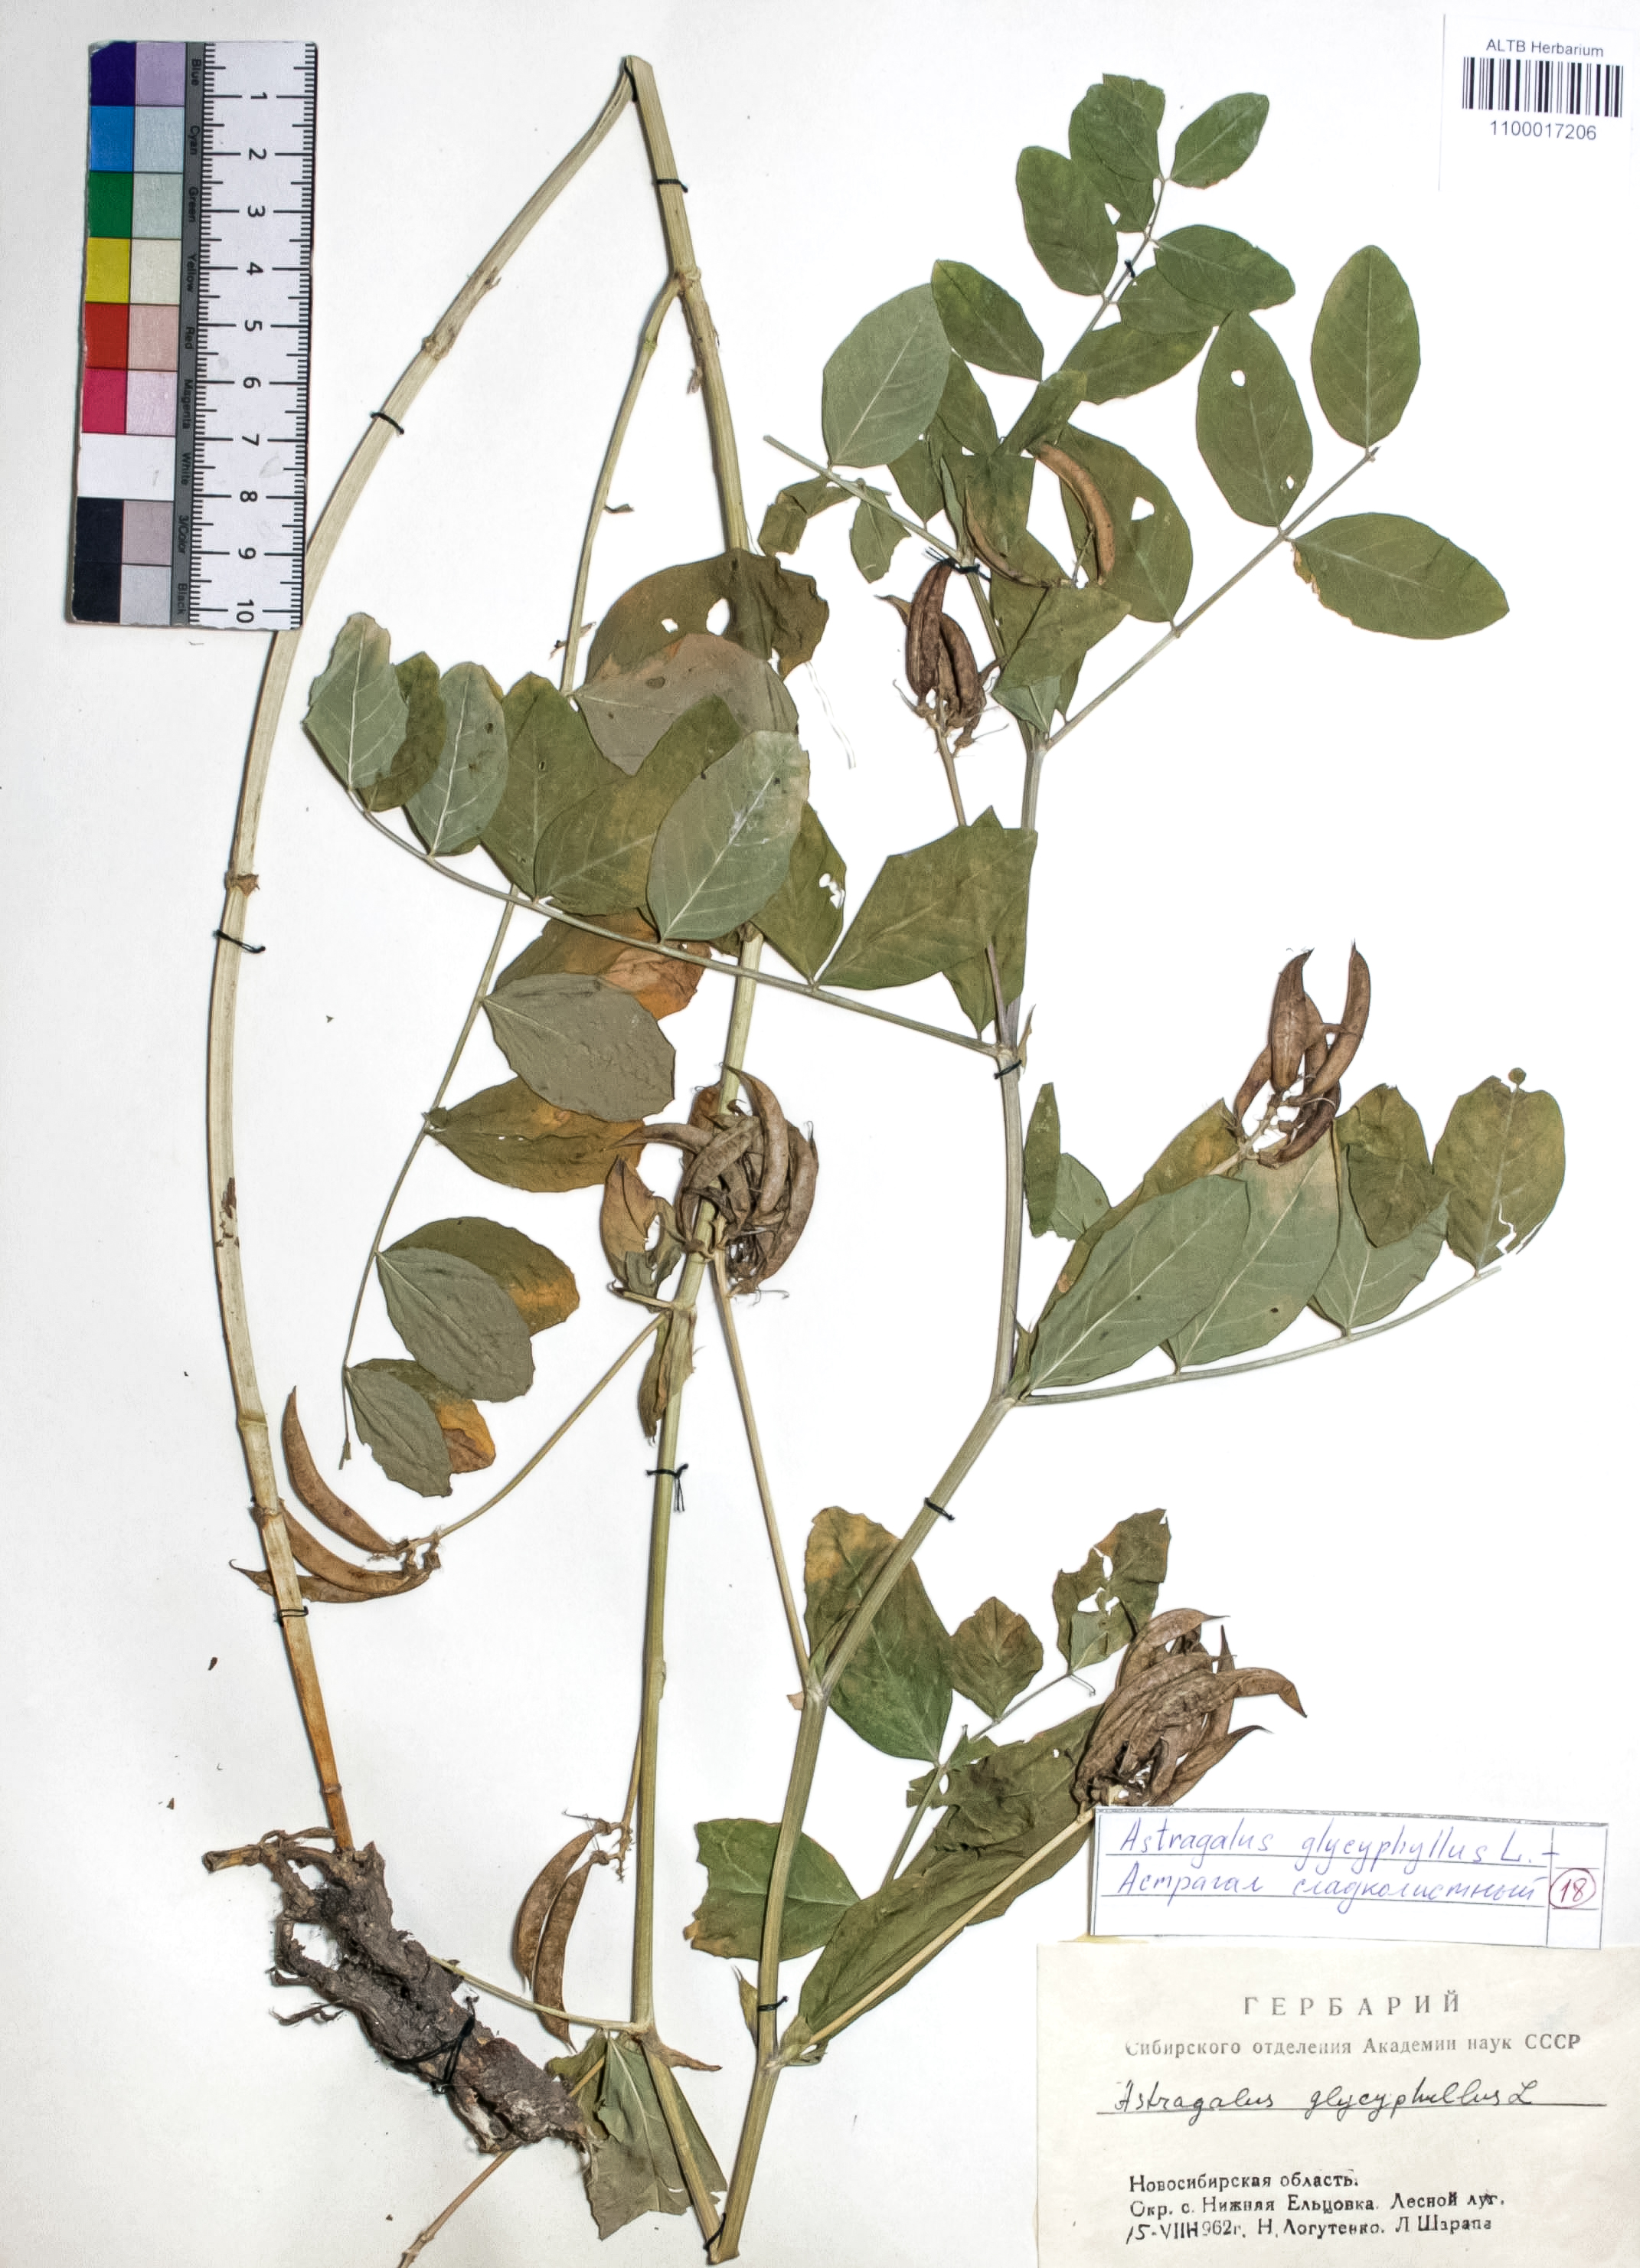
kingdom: Plantae
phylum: Tracheophyta
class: Magnoliopsida
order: Fabales
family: Fabaceae
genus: Astragalus
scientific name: Astragalus glycyphyllos
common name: Wild liquorice
